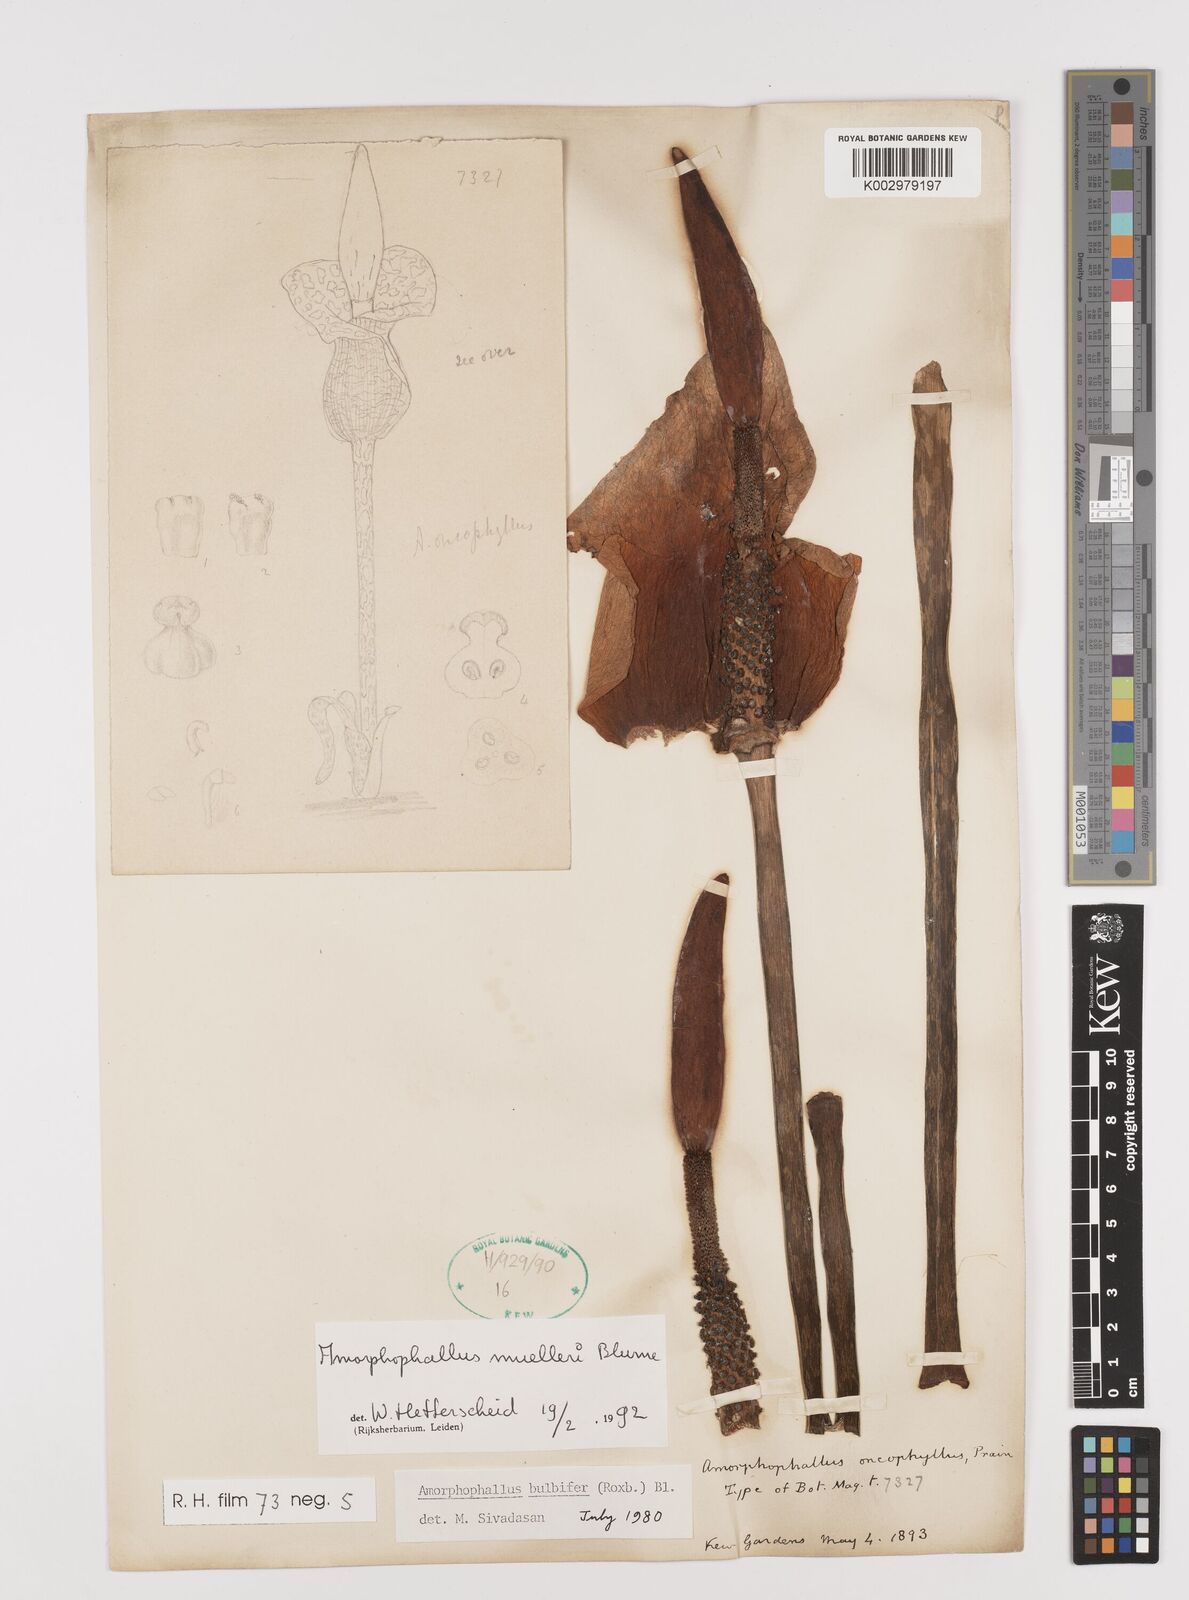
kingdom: Plantae
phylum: Tracheophyta
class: Liliopsida
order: Alismatales
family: Araceae
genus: Amorphophallus
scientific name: Amorphophallus muelleri
